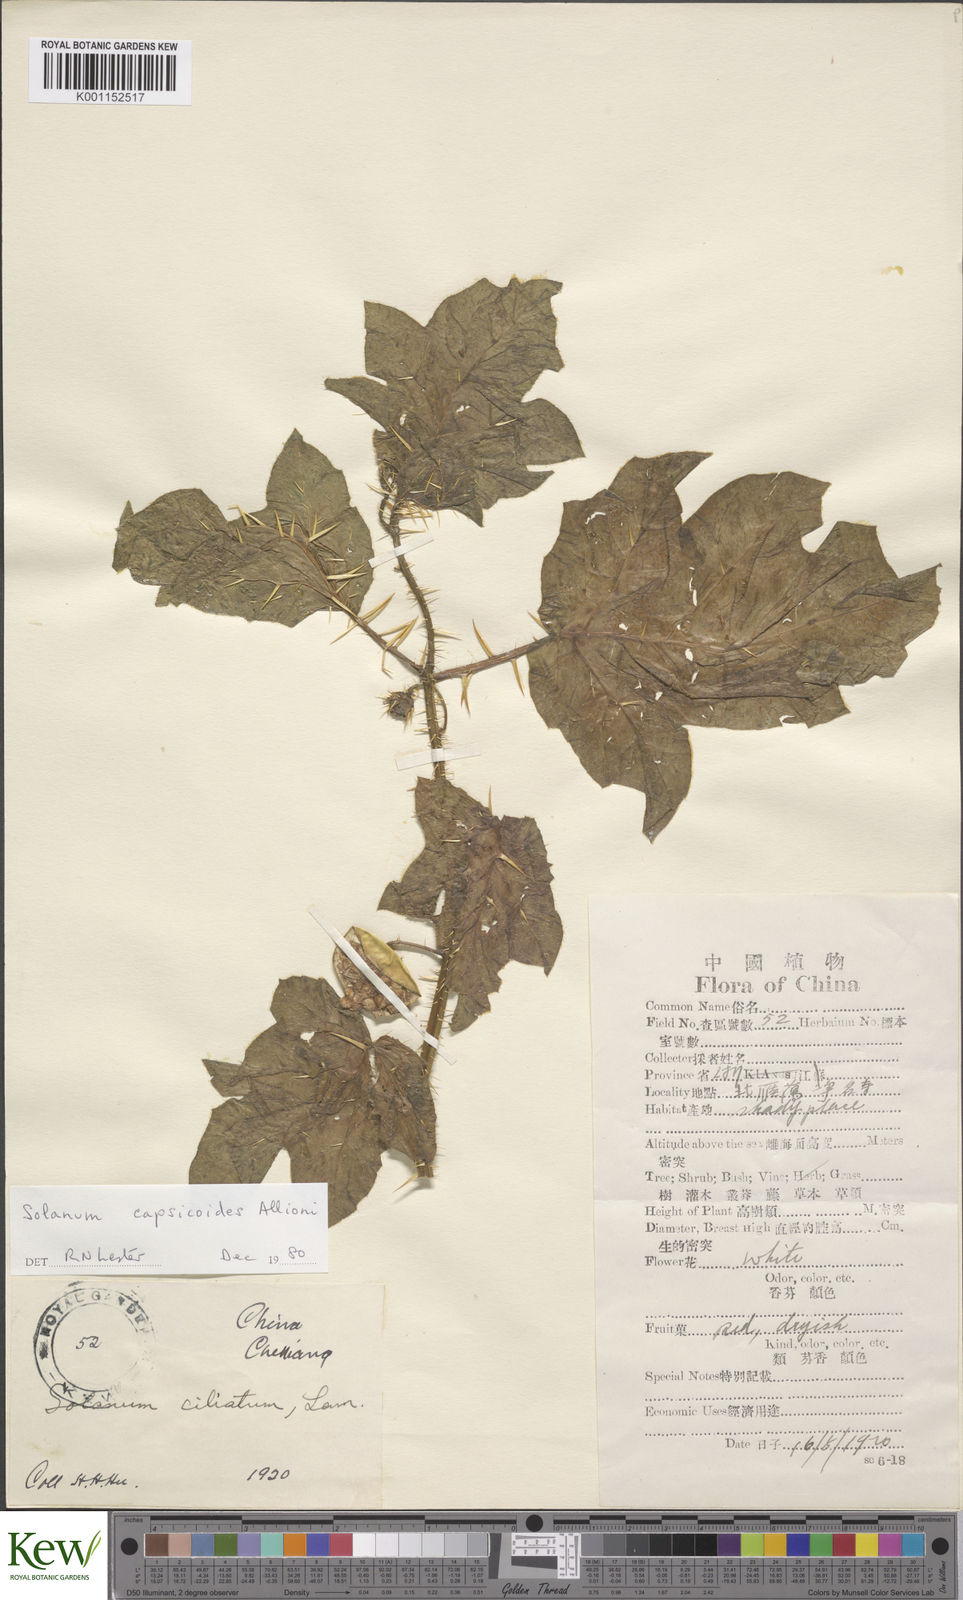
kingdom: Plantae
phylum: Tracheophyta
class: Magnoliopsida
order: Solanales
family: Solanaceae
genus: Solanum
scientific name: Solanum capsicoides
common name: Cockroach berry
